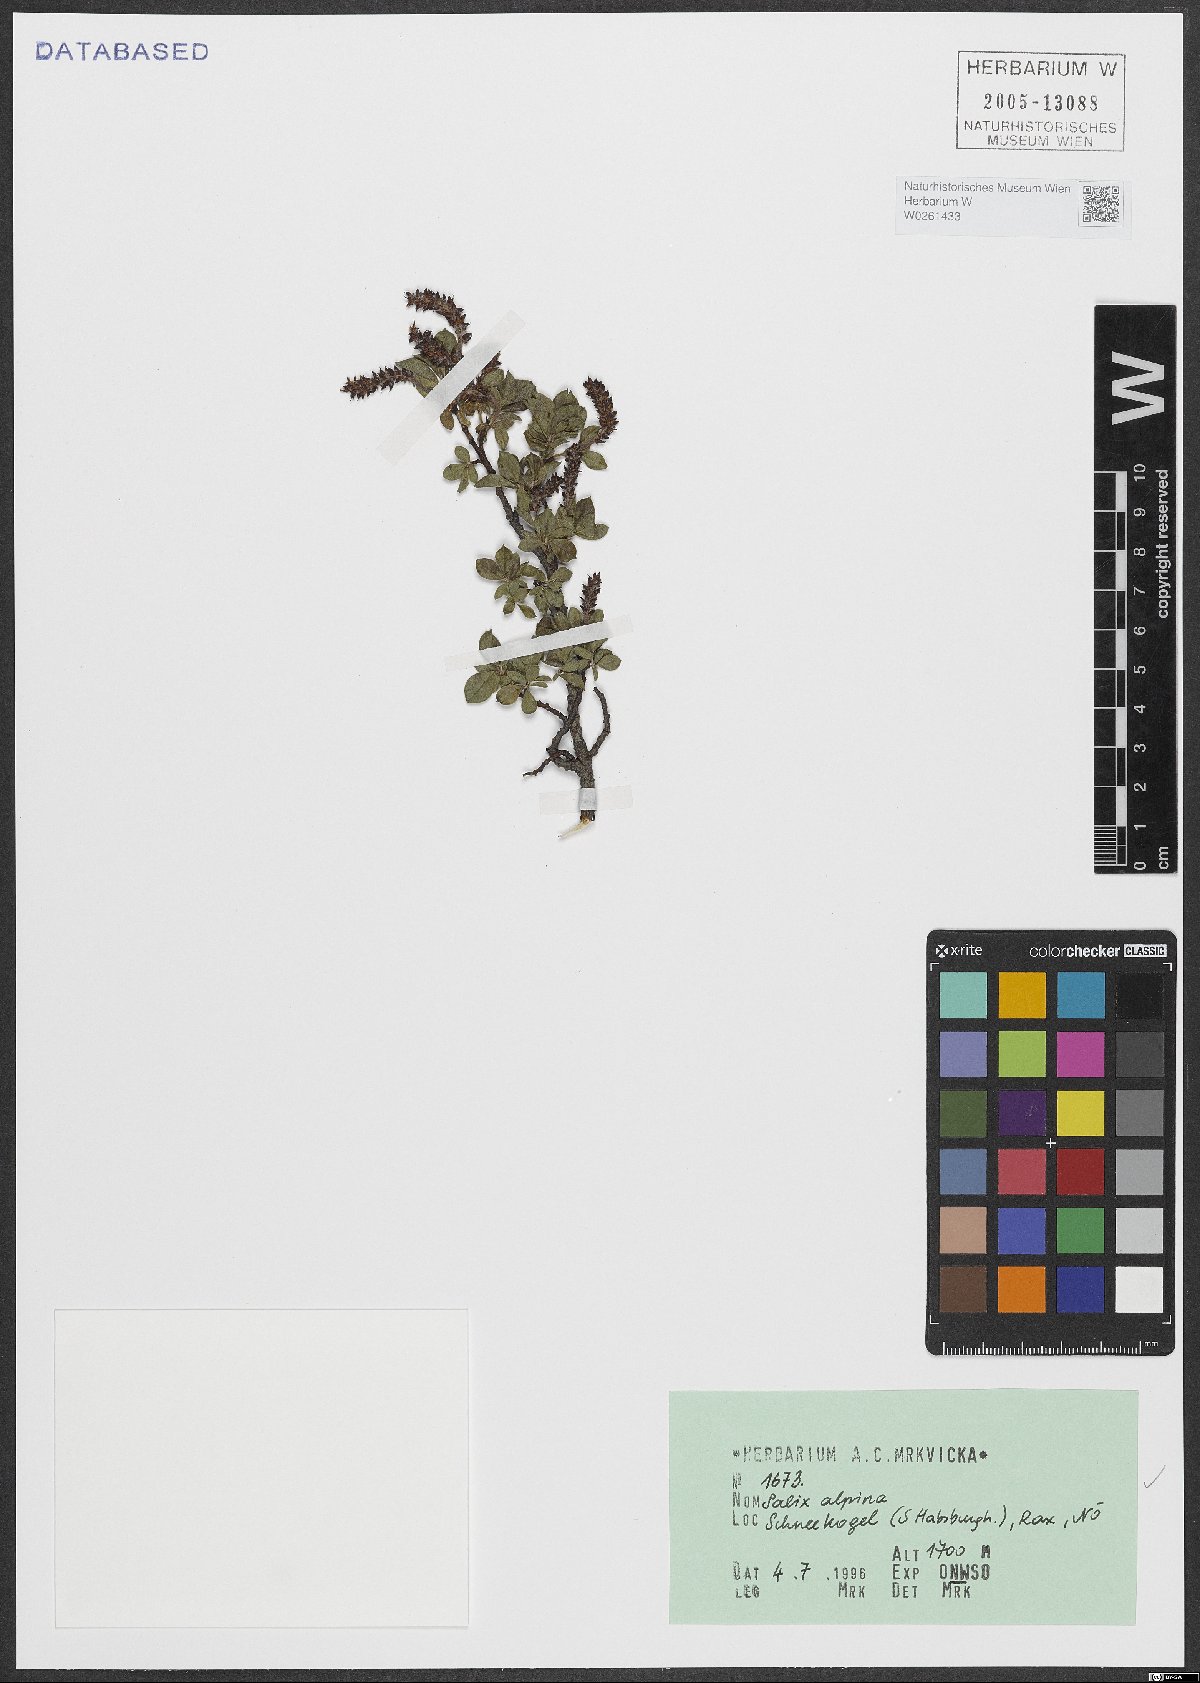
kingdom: Plantae
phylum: Tracheophyta
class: Magnoliopsida
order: Malpighiales
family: Salicaceae
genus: Salix
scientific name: Salix alpina
